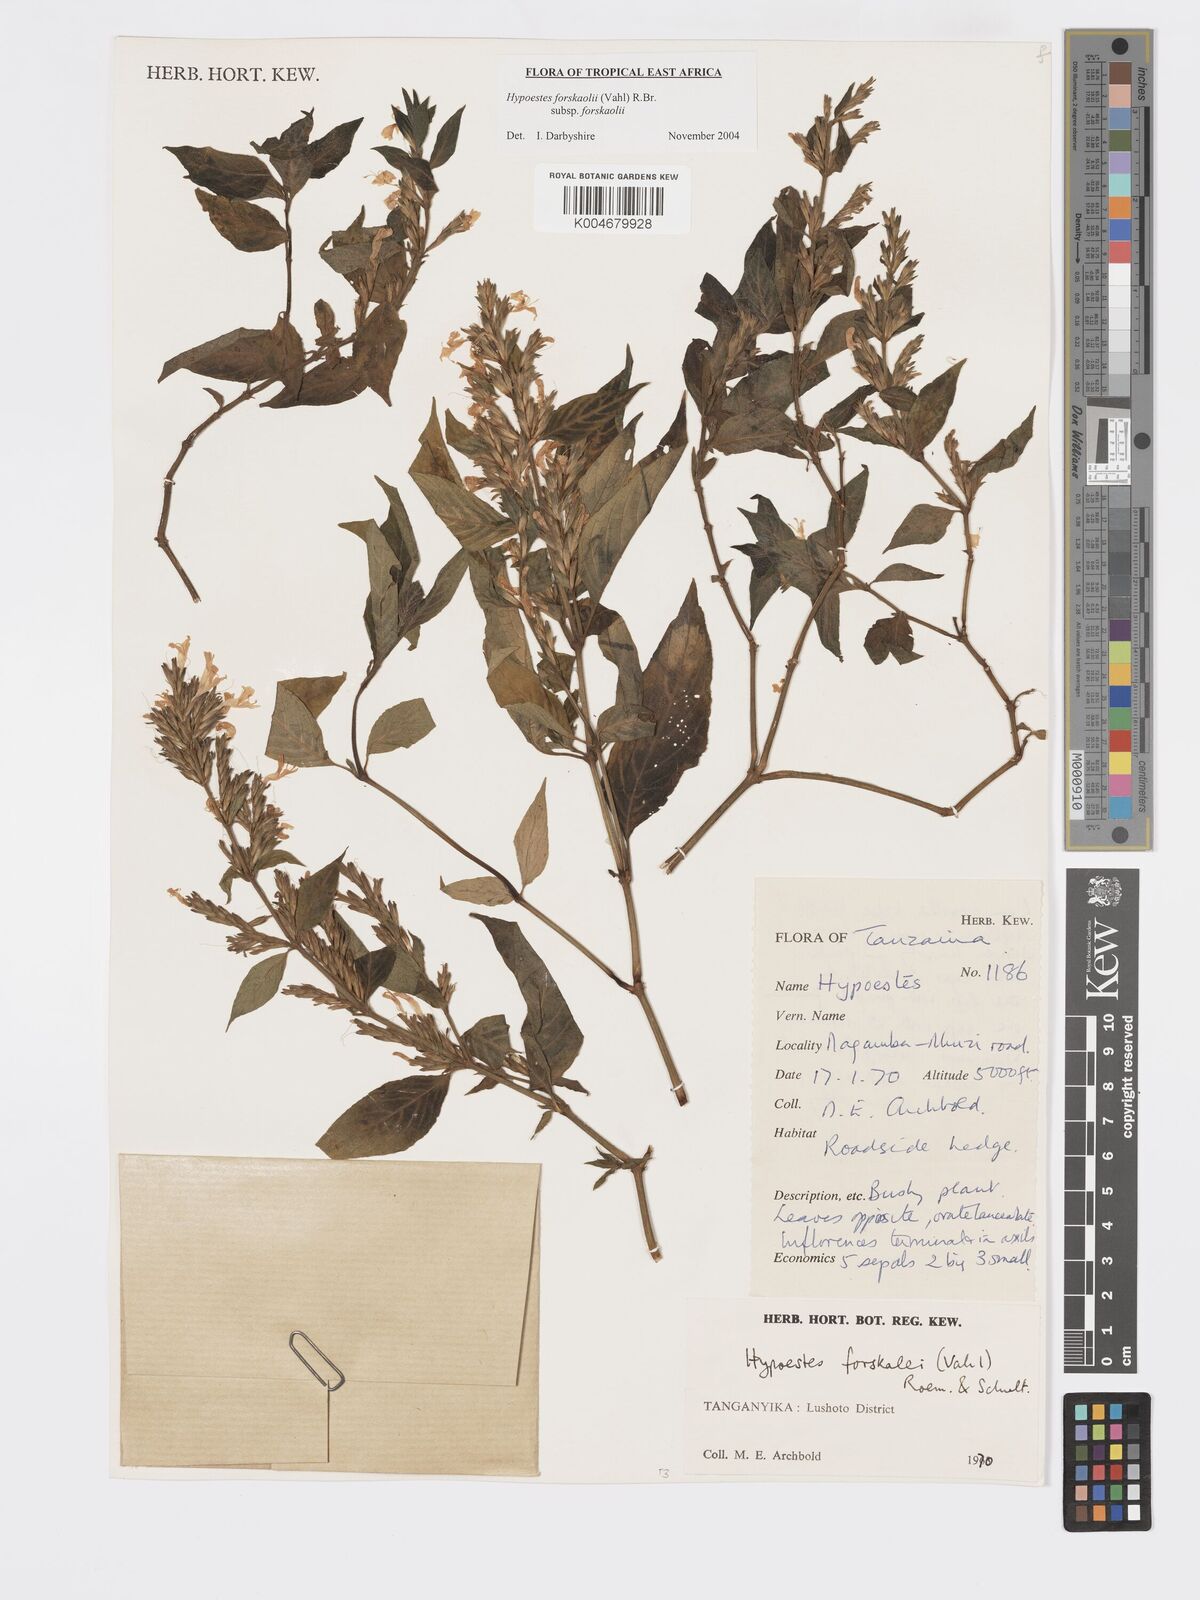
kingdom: Plantae
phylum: Tracheophyta
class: Magnoliopsida
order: Lamiales
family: Acanthaceae
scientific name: Acanthaceae
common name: Acanthaceae
